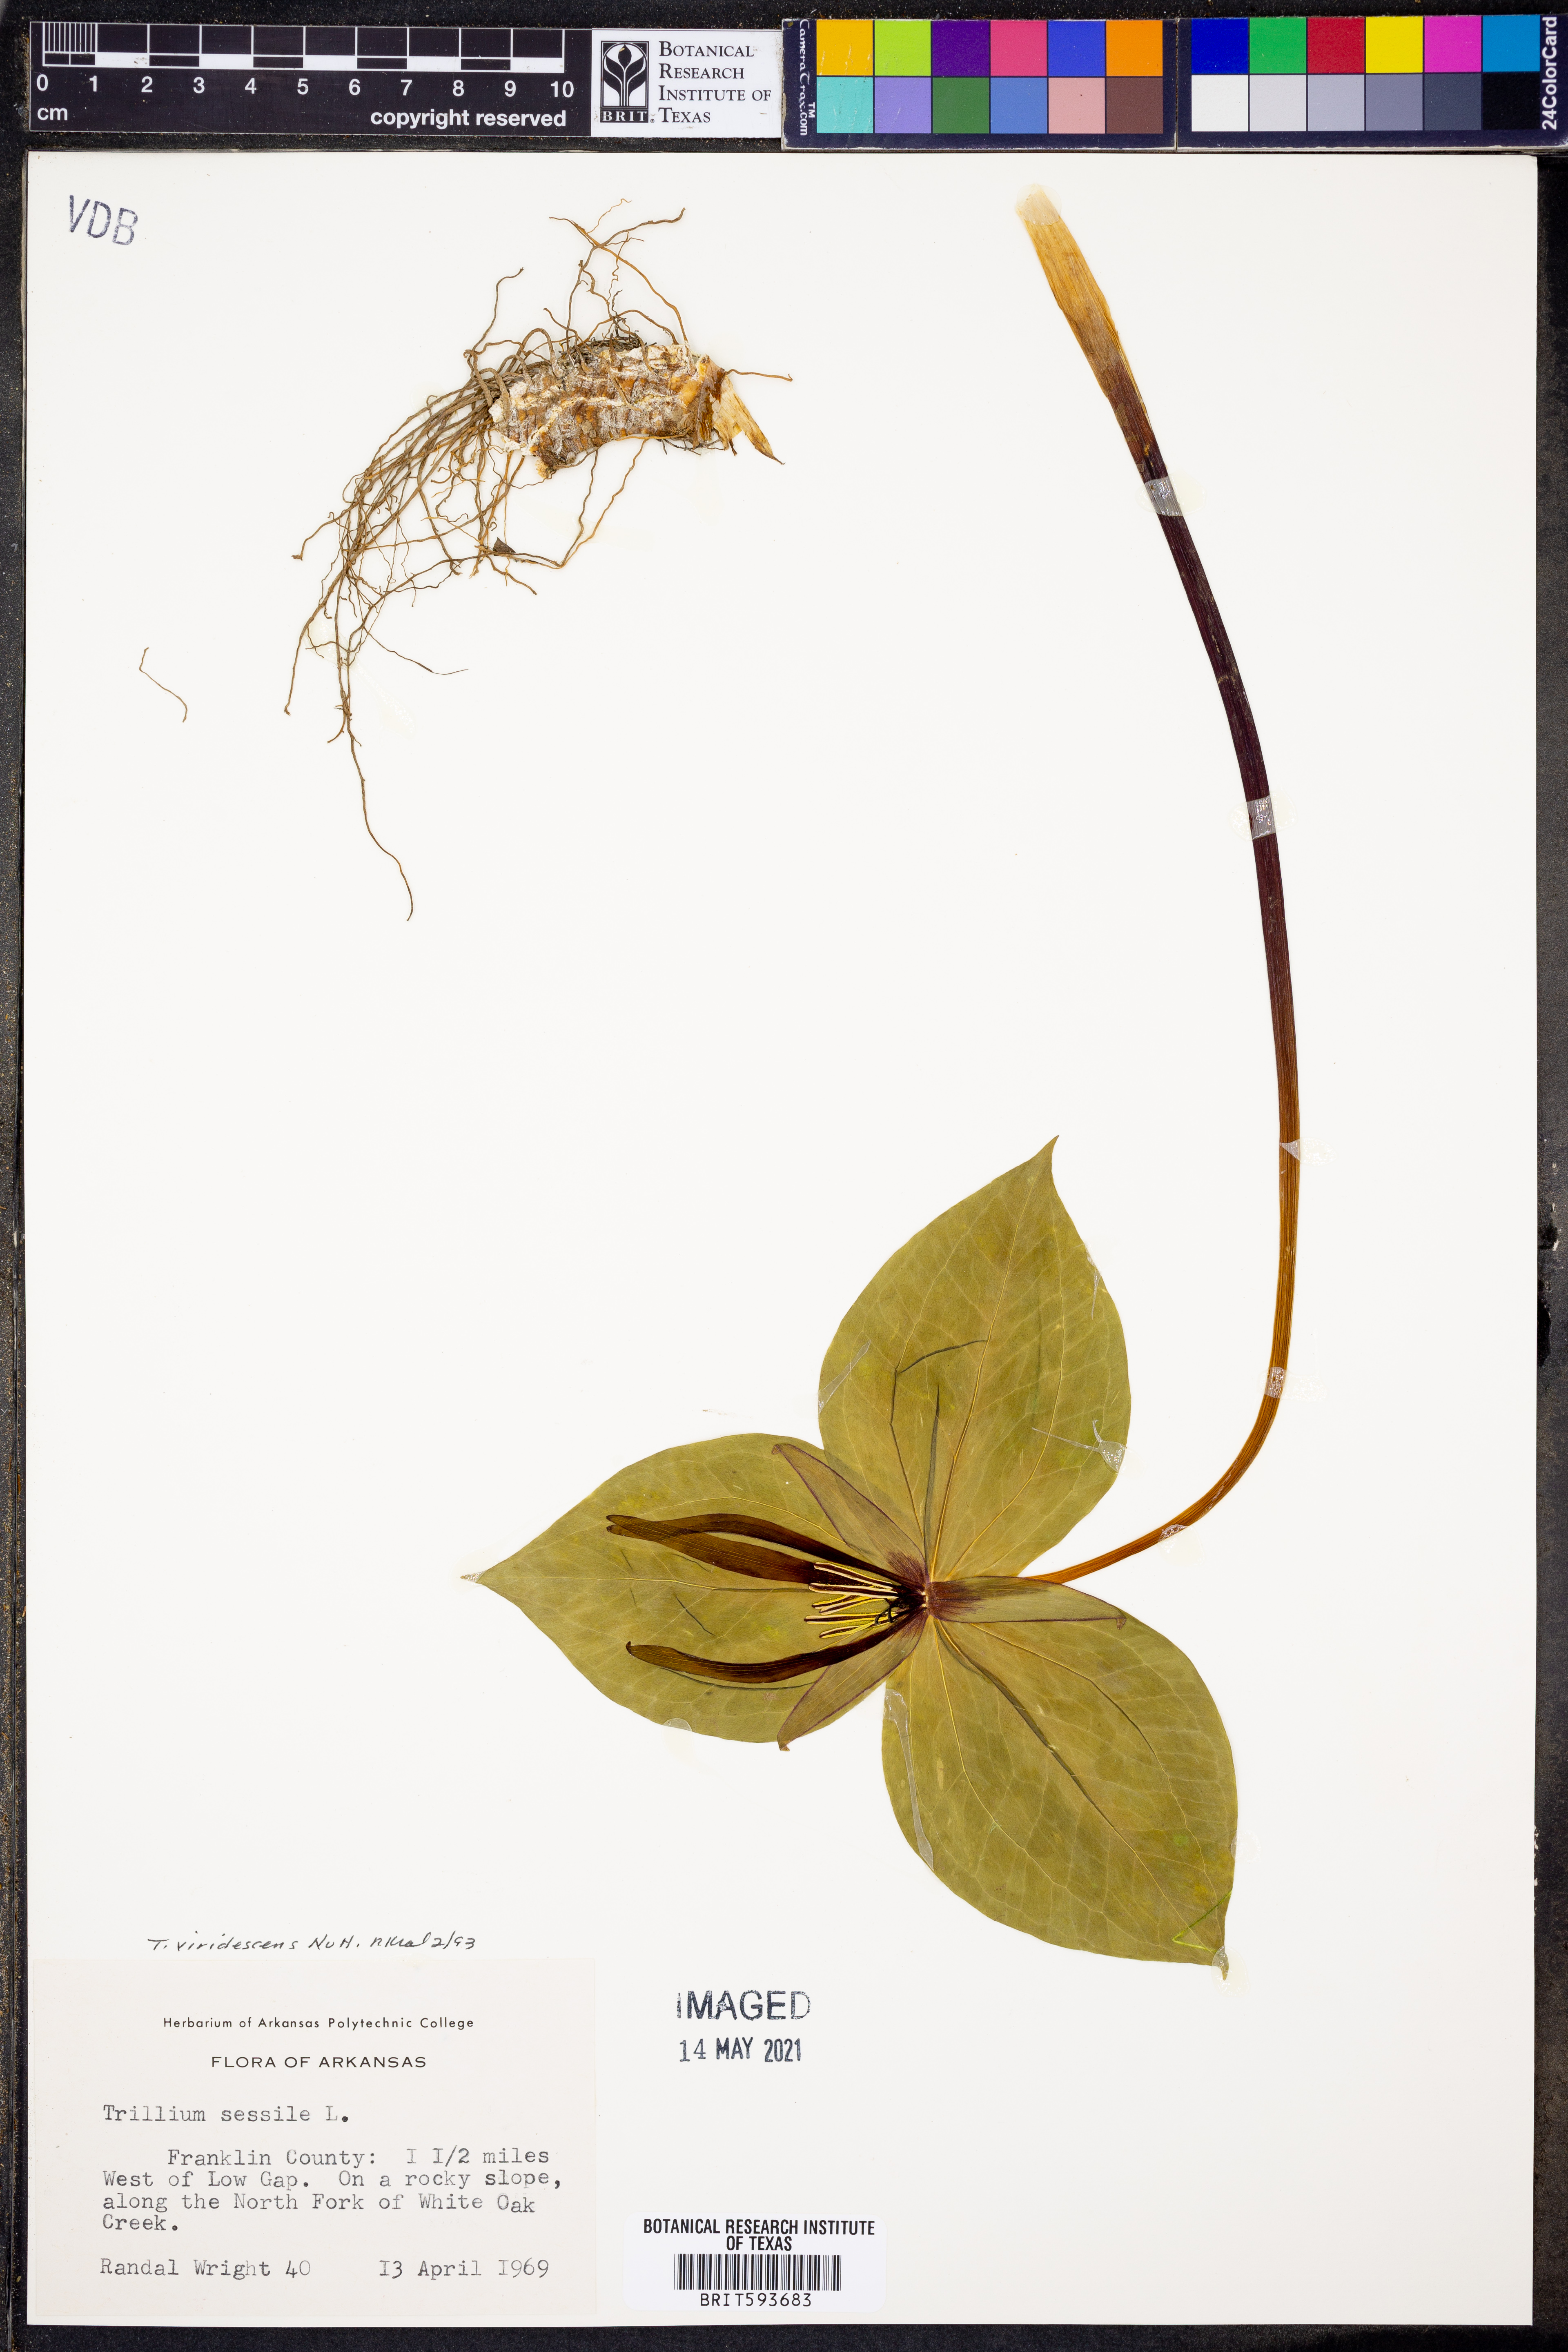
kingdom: Plantae
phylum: Tracheophyta
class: Liliopsida
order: Liliales
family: Melanthiaceae
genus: Trillium
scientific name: Trillium viridescens
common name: Ozark green trillium
